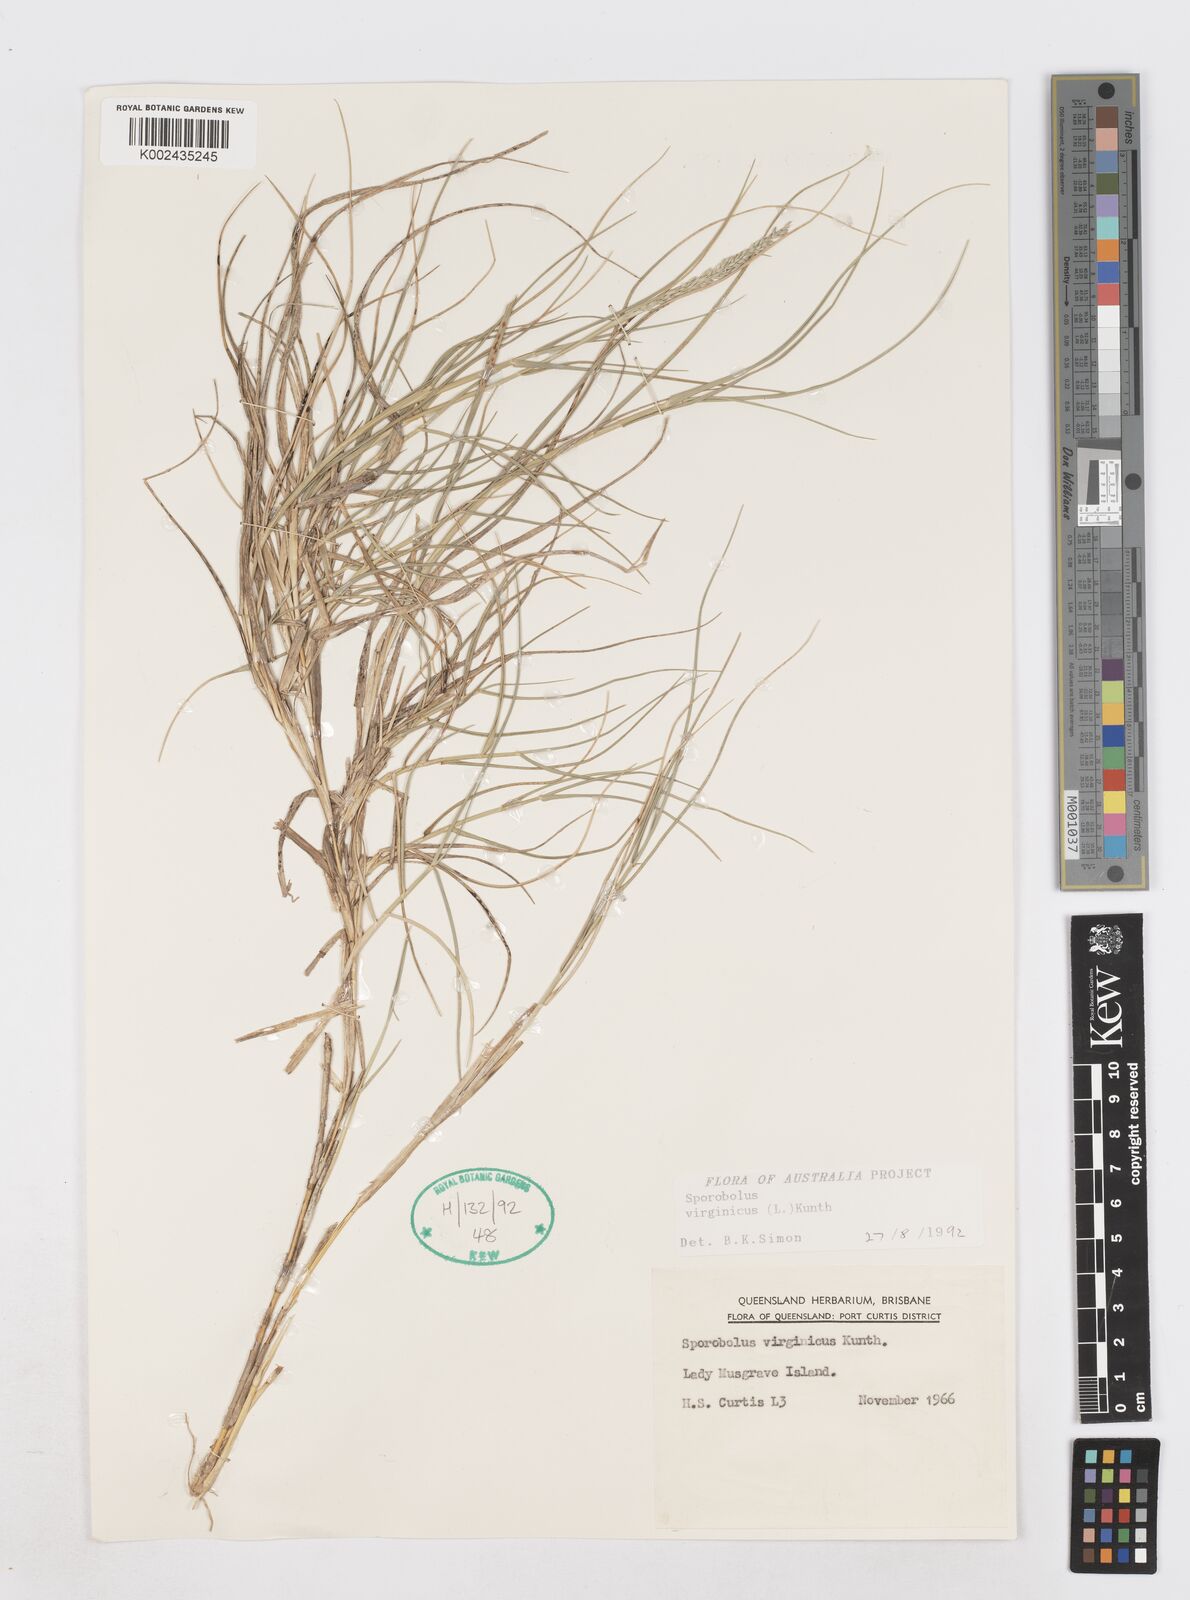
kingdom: Plantae
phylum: Tracheophyta
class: Liliopsida
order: Poales
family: Poaceae
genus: Sporobolus
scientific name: Sporobolus virginicus
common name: Beach dropseed
